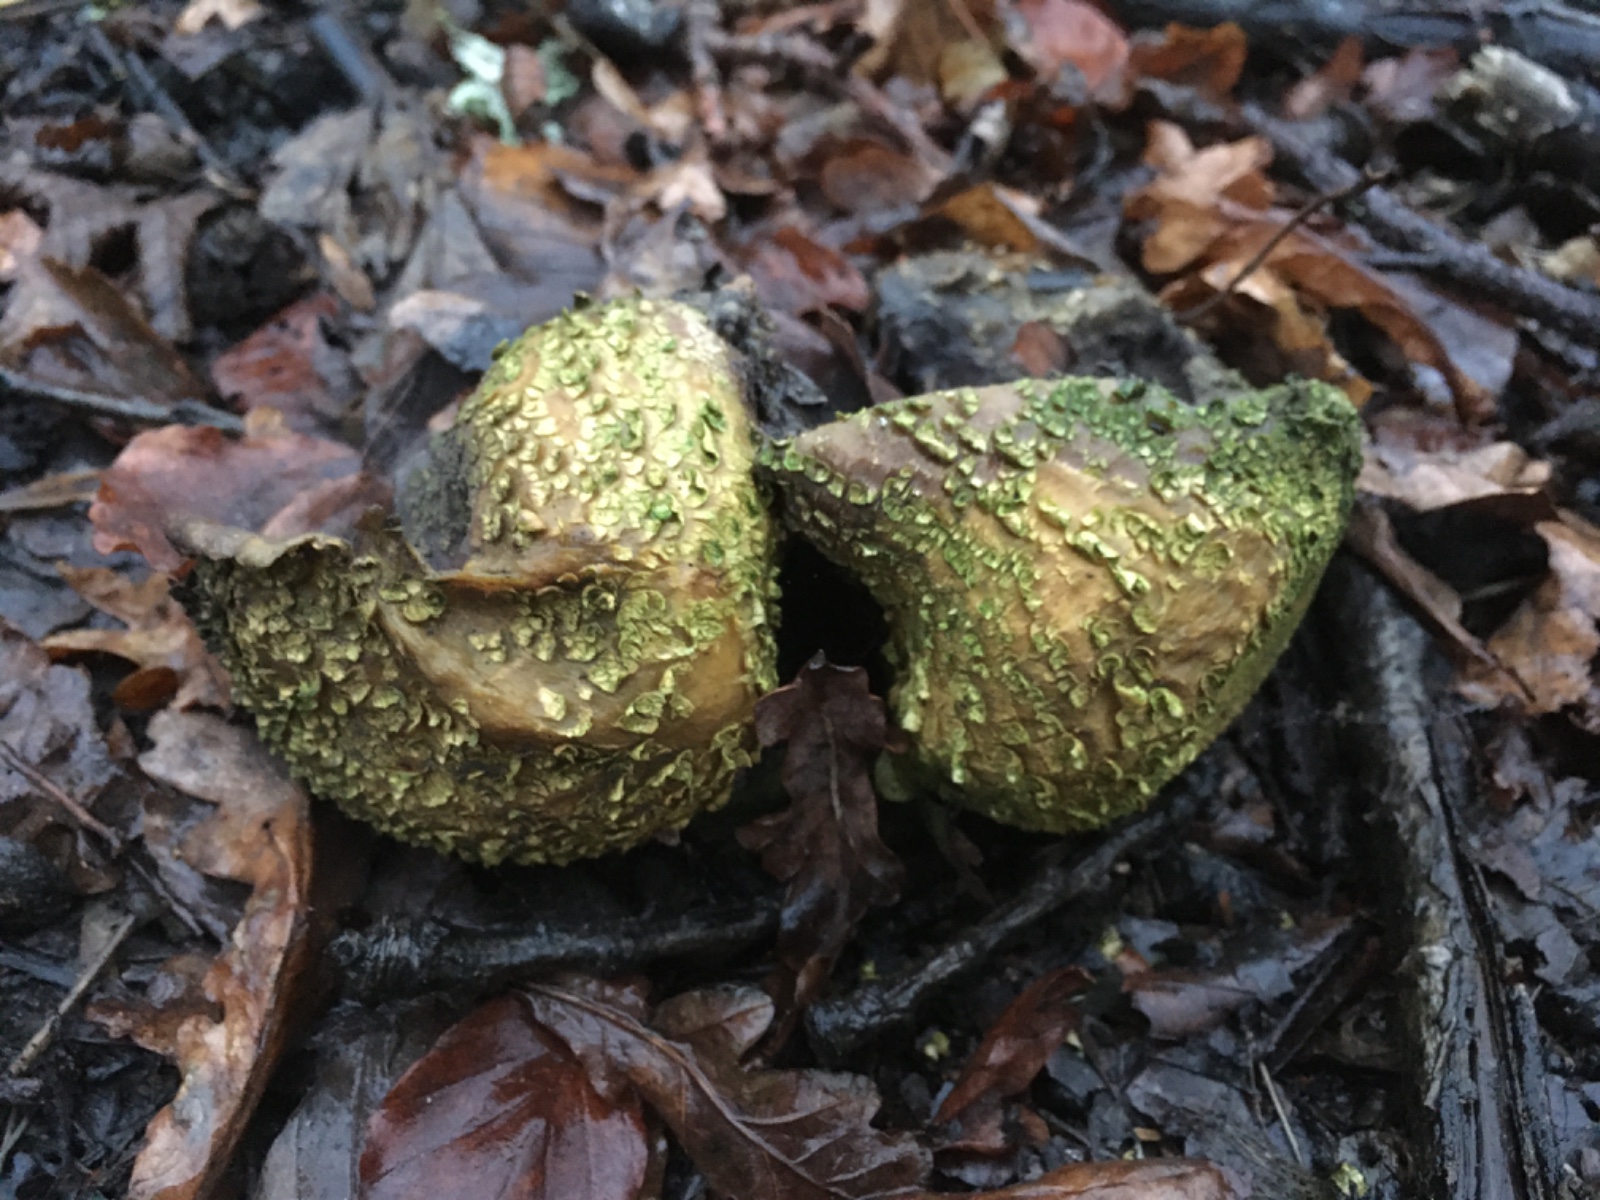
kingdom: Fungi
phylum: Basidiomycota
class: Agaricomycetes
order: Boletales
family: Sclerodermataceae
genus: Scleroderma
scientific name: Scleroderma citrinum
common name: almindelig bruskbold
